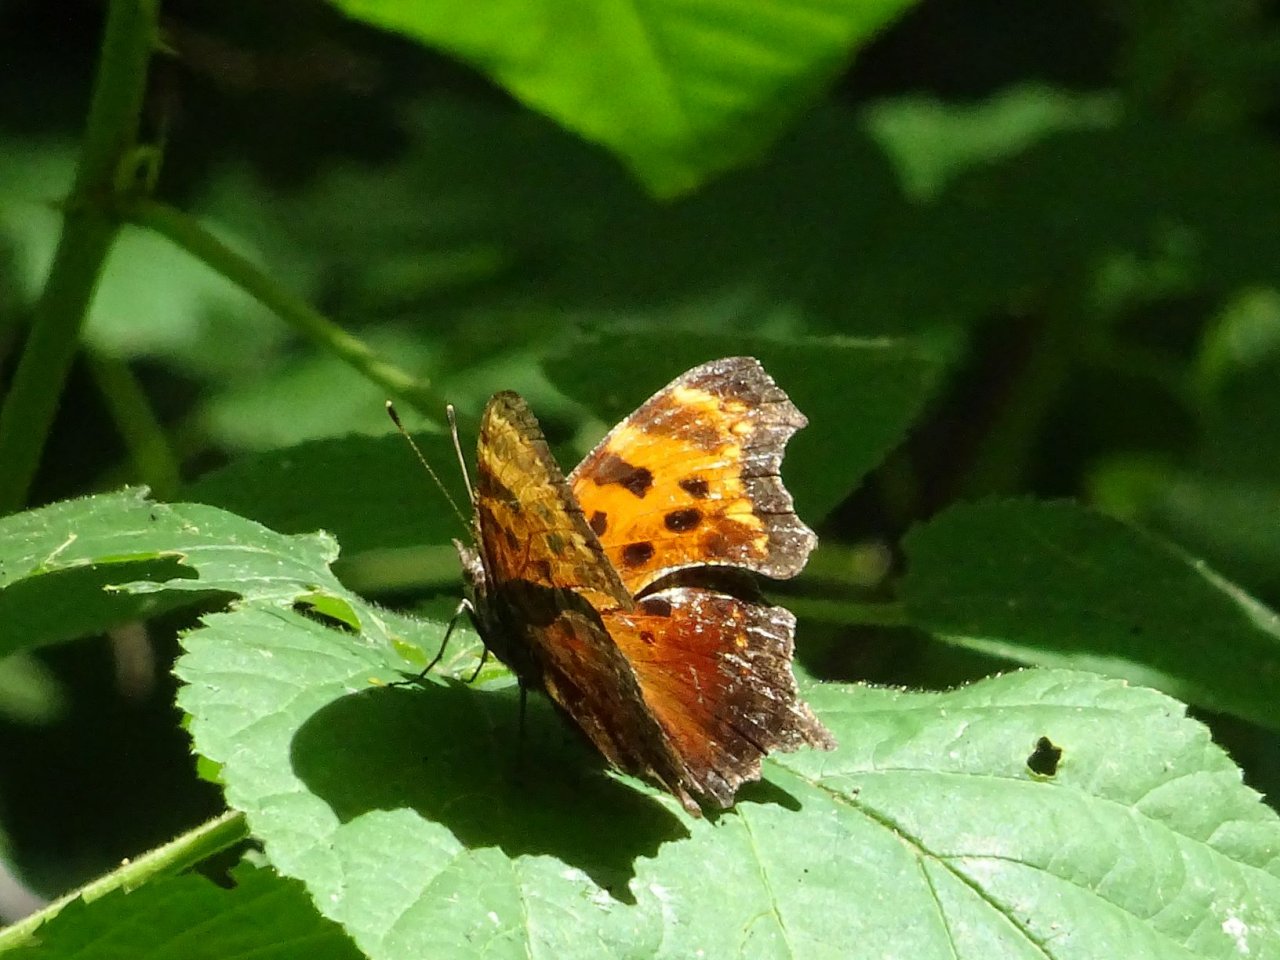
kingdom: Animalia
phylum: Arthropoda
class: Insecta
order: Lepidoptera
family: Nymphalidae
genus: Polygonia
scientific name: Polygonia
